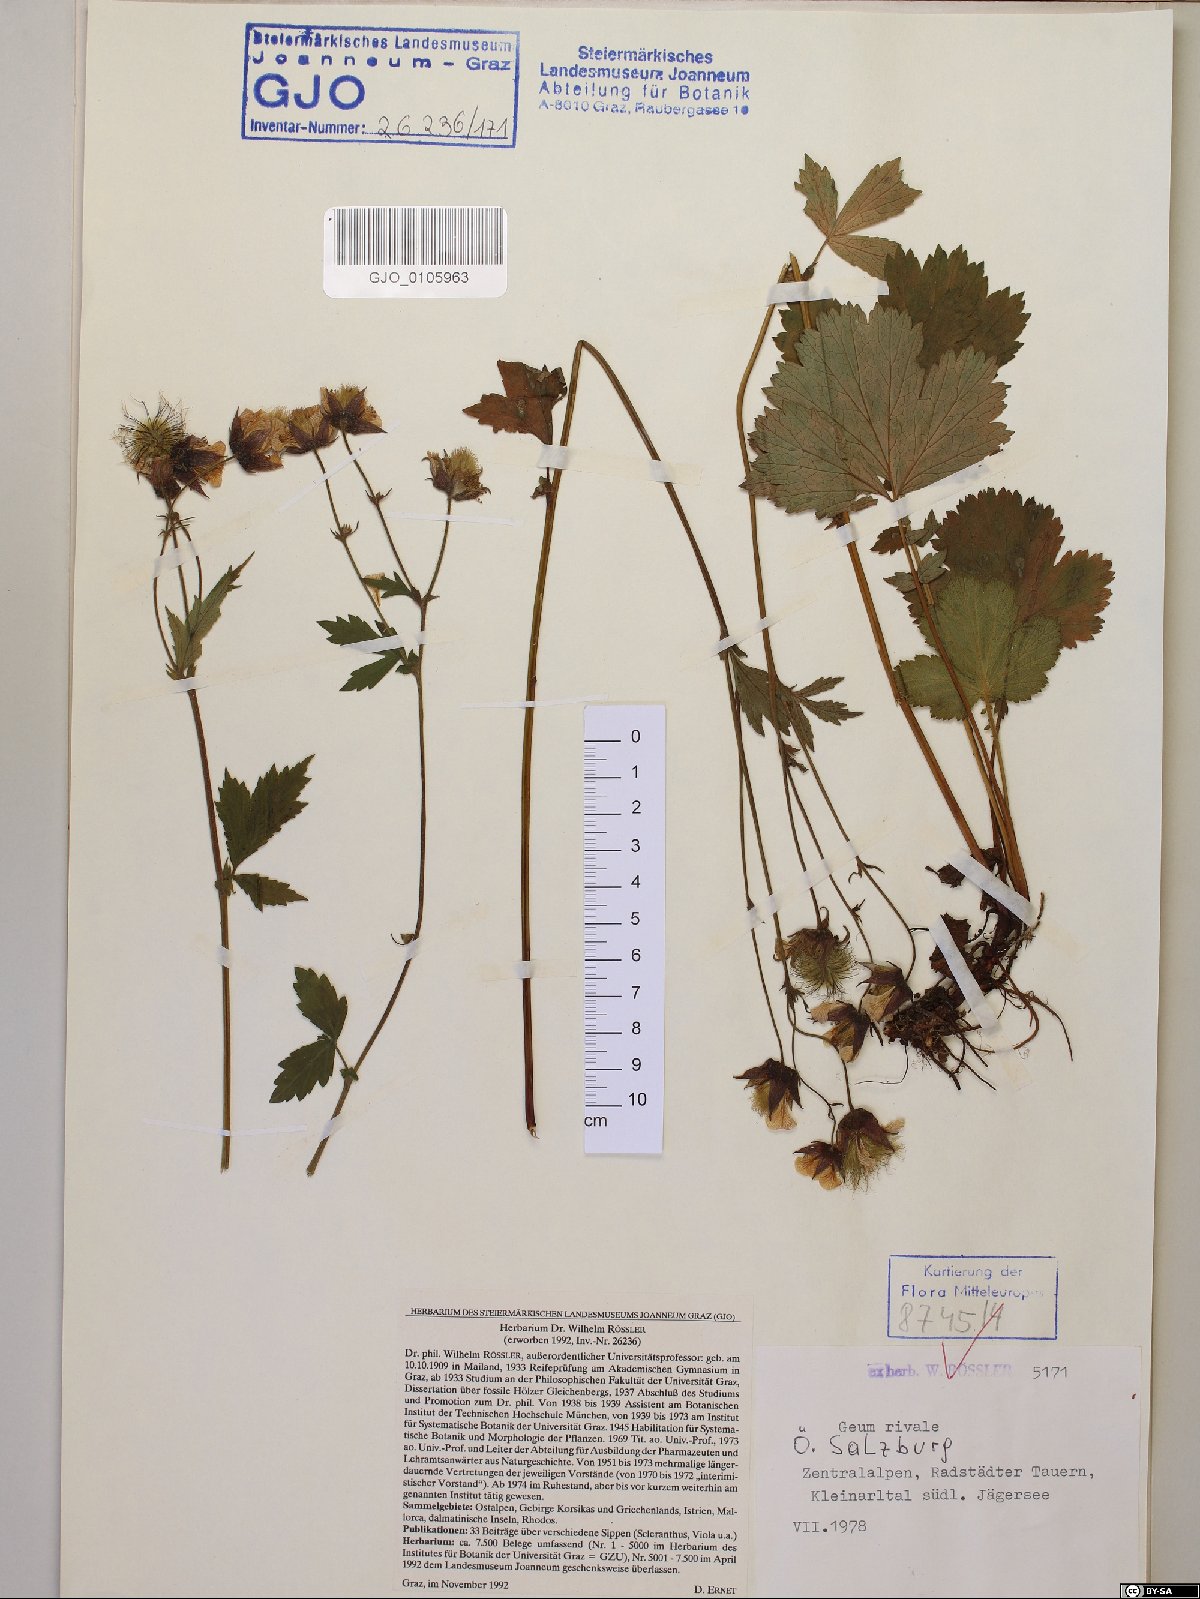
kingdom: Plantae
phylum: Tracheophyta
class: Magnoliopsida
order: Rosales
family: Rosaceae
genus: Geum
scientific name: Geum rivale
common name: Water avens
